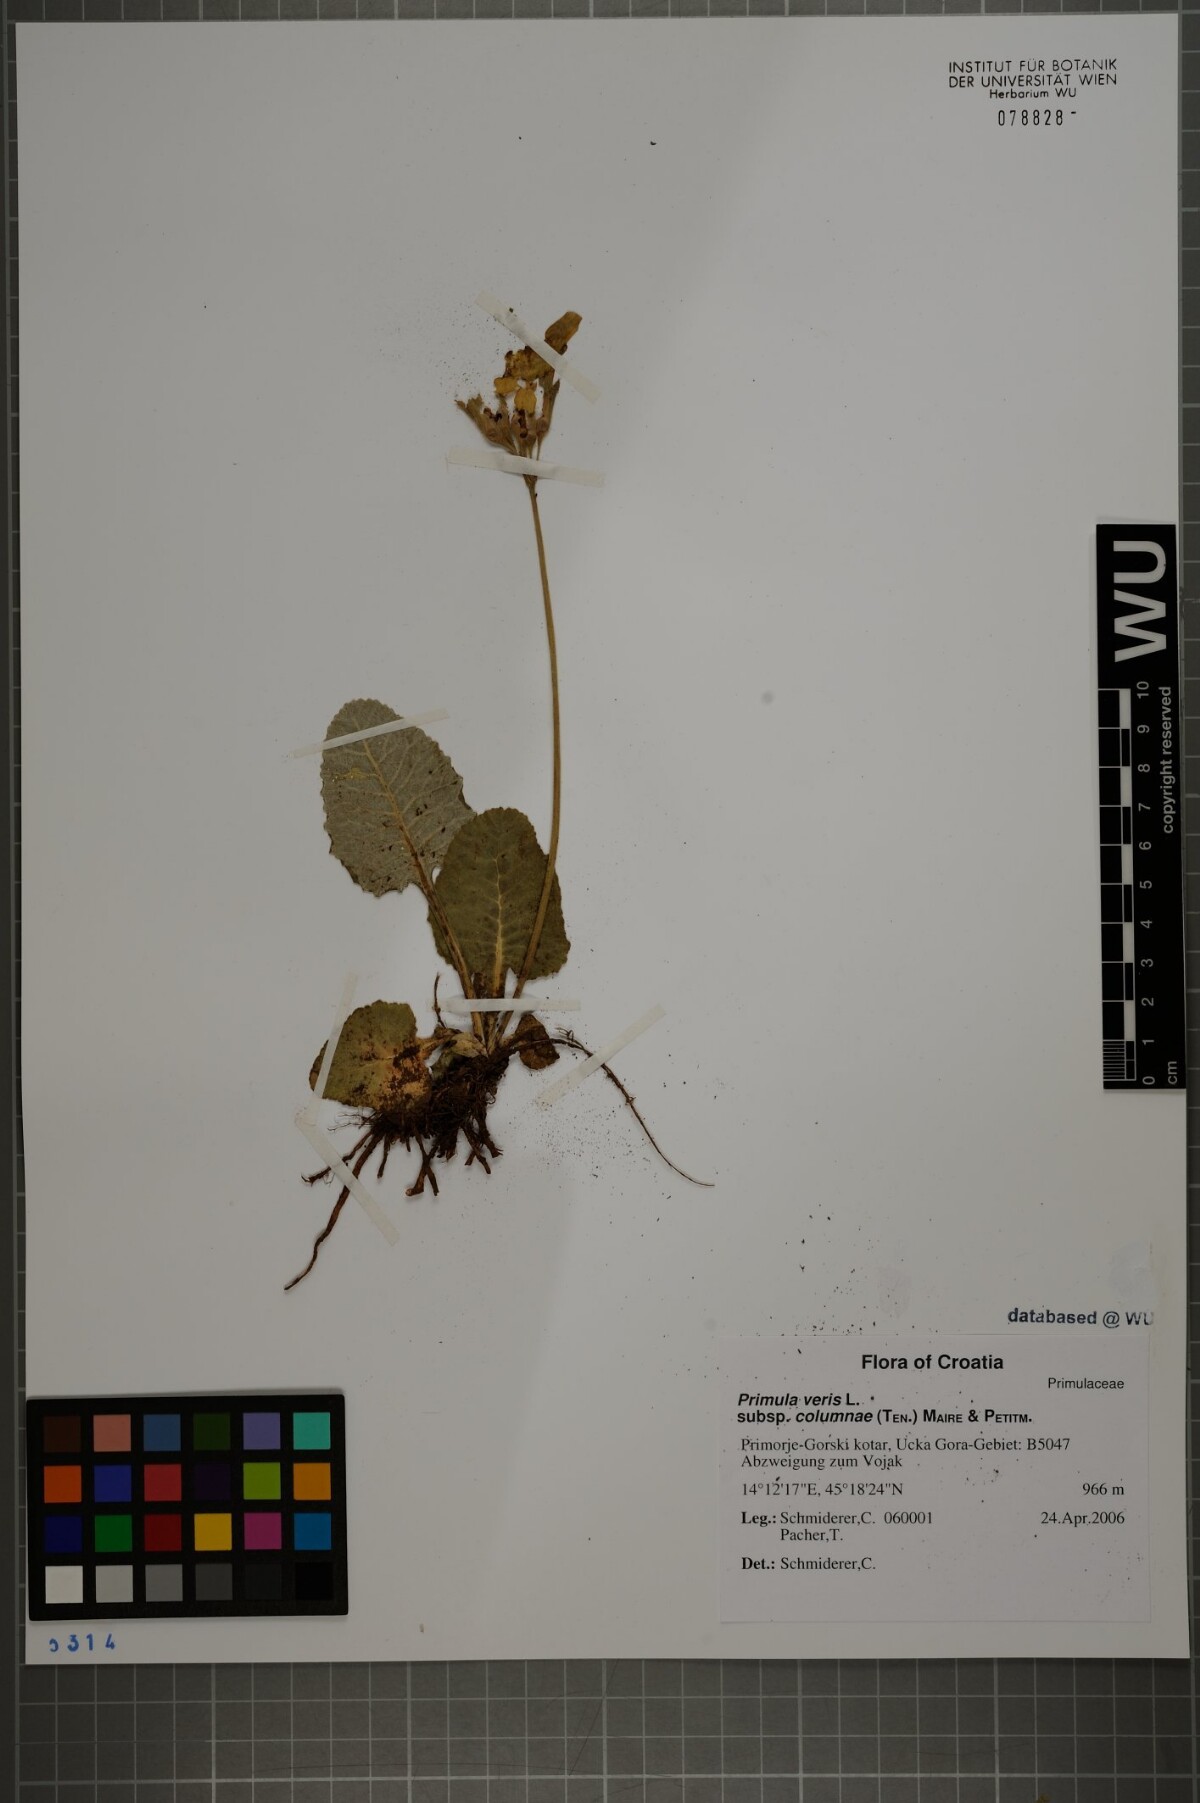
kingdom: Plantae
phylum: Tracheophyta
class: Magnoliopsida
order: Ericales
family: Primulaceae
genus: Primula
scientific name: Primula veris
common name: Cowslip
